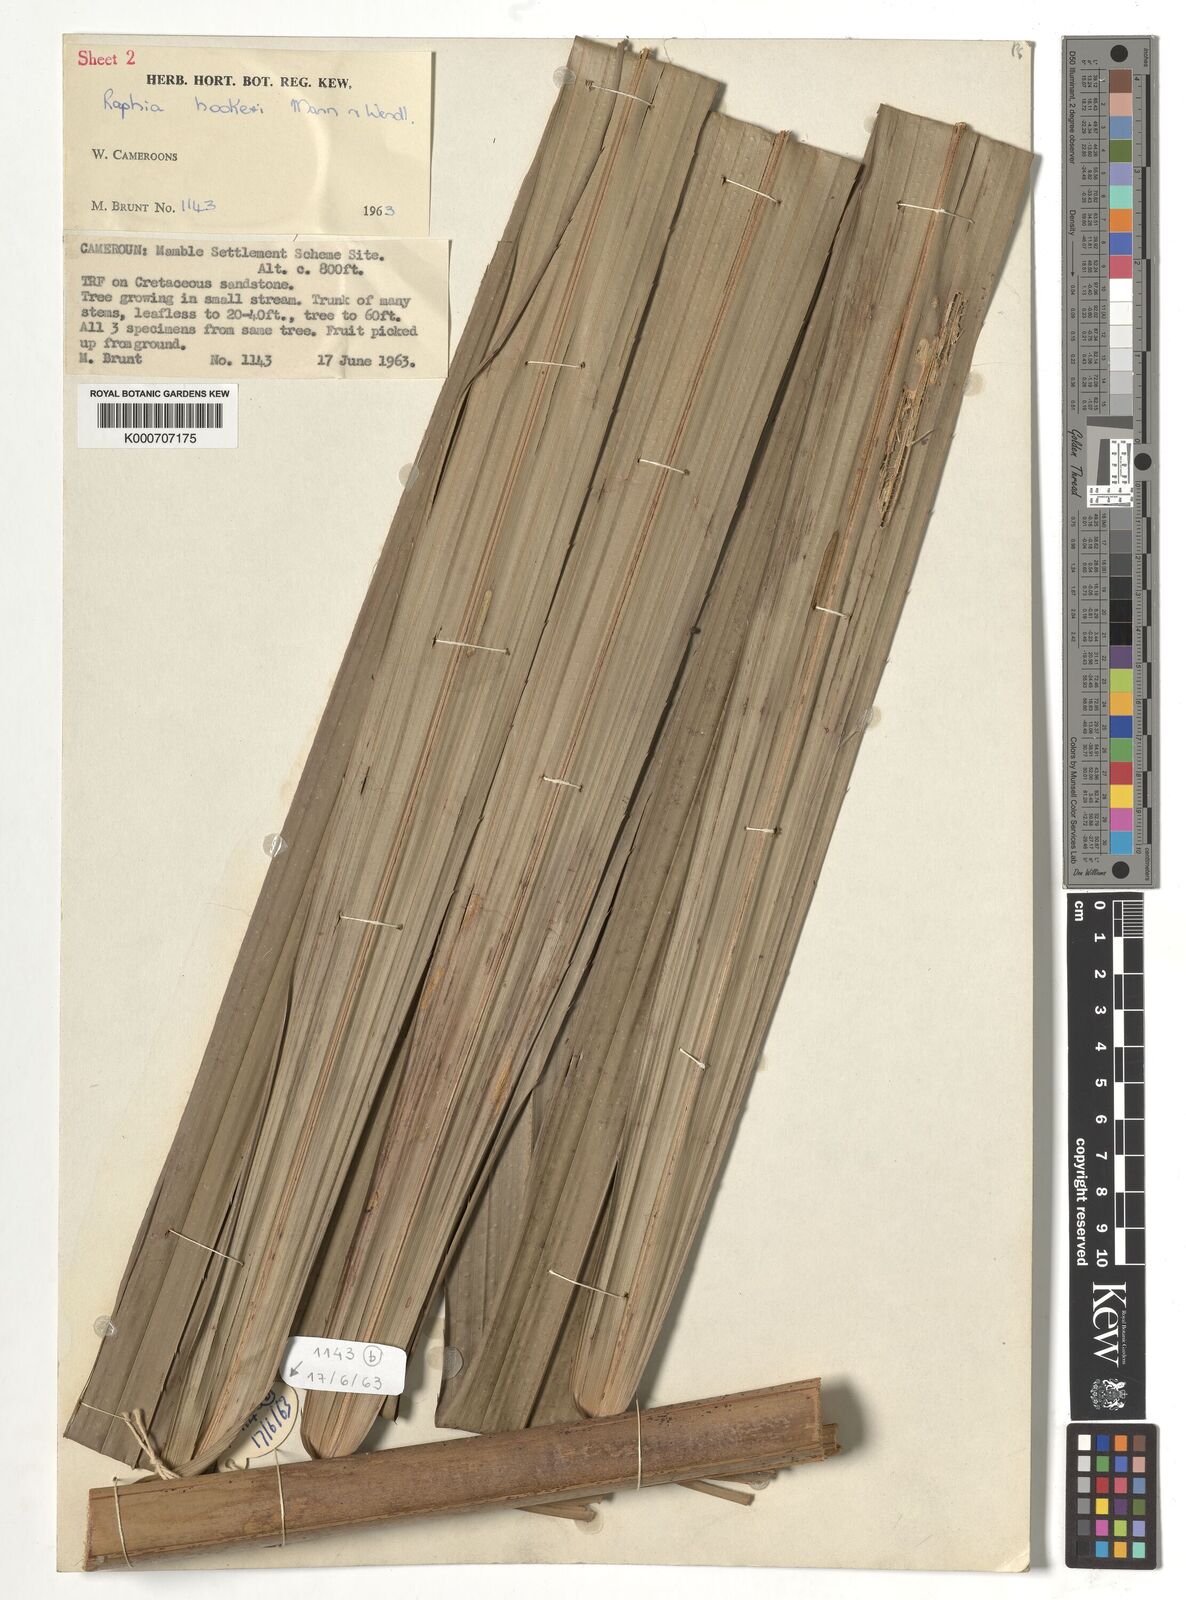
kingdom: Plantae
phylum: Tracheophyta
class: Liliopsida
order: Arecales
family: Arecaceae
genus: Raphia
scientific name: Raphia hookeri
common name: Wine palm
